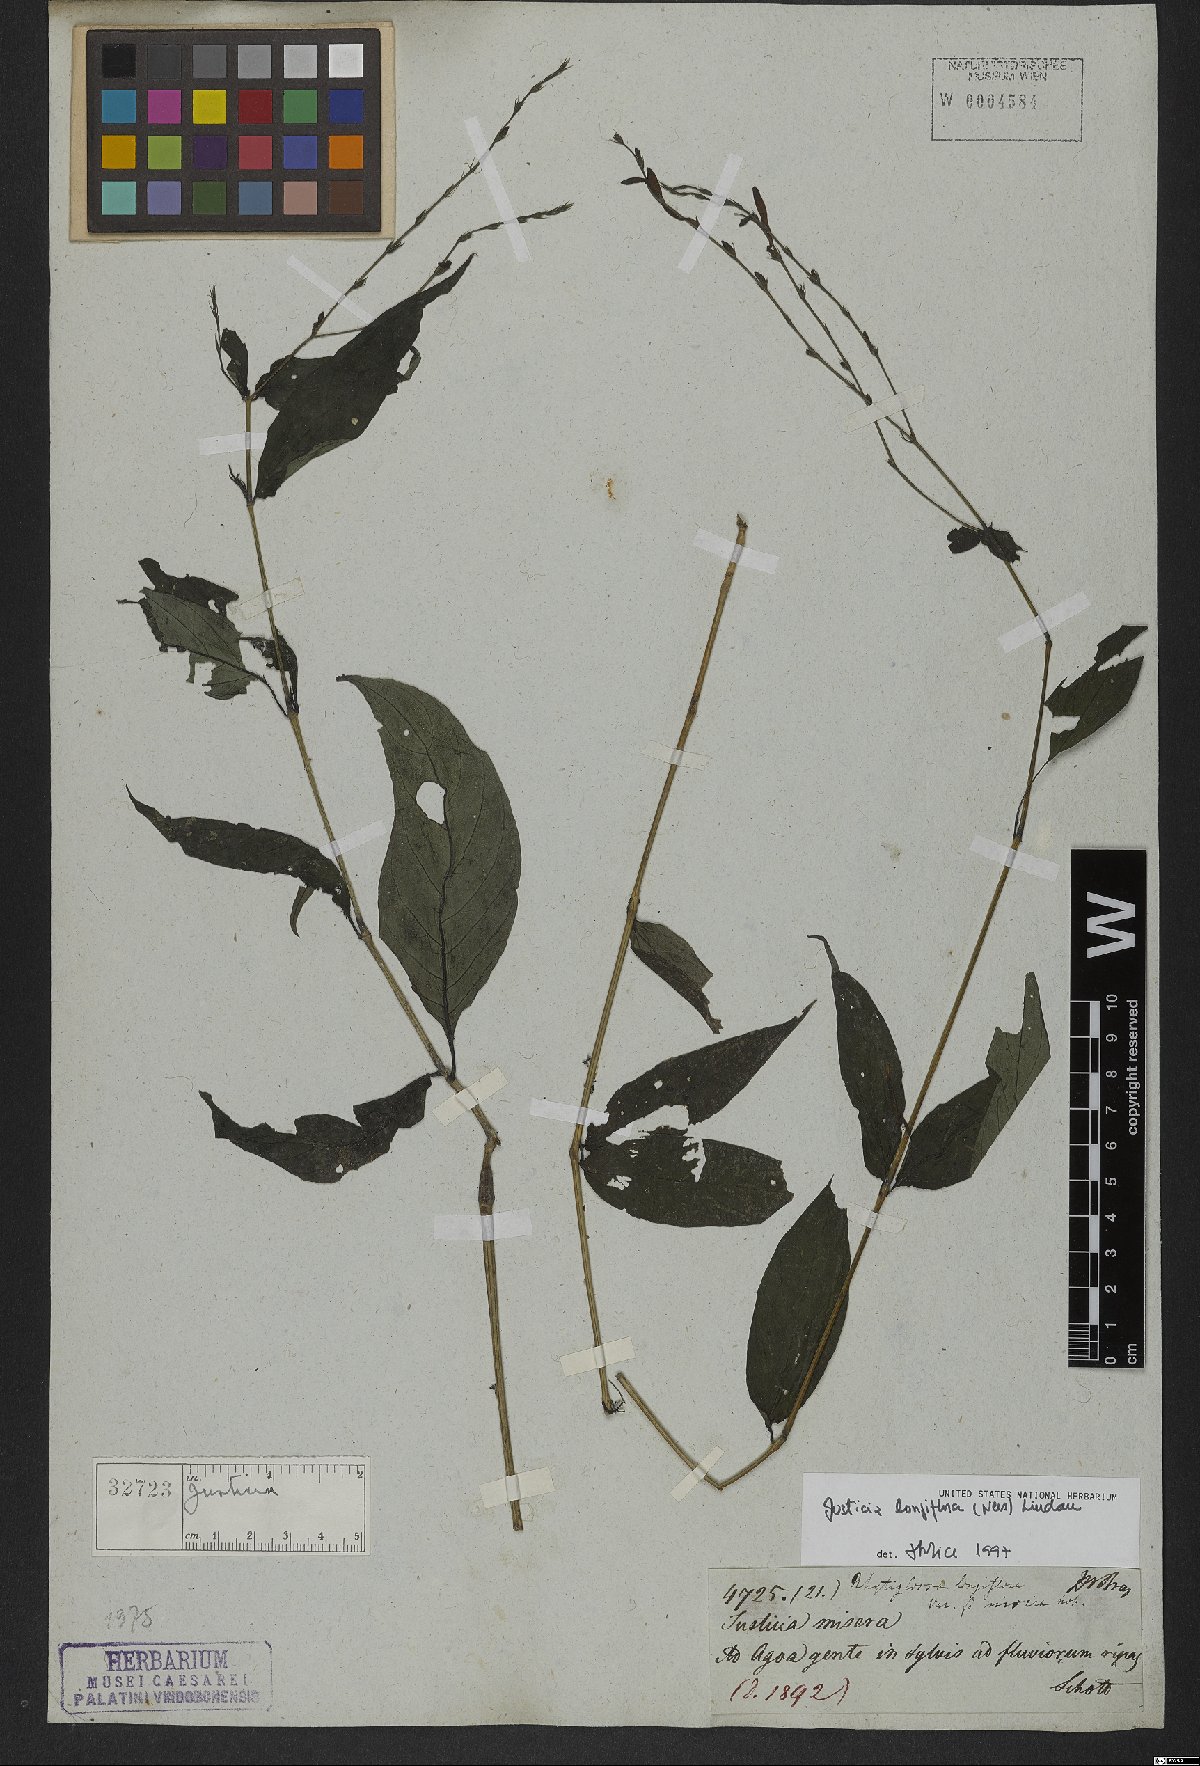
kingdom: Plantae
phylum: Tracheophyta
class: Magnoliopsida
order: Lamiales
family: Acanthaceae
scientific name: Acanthaceae
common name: Acanthaceae
